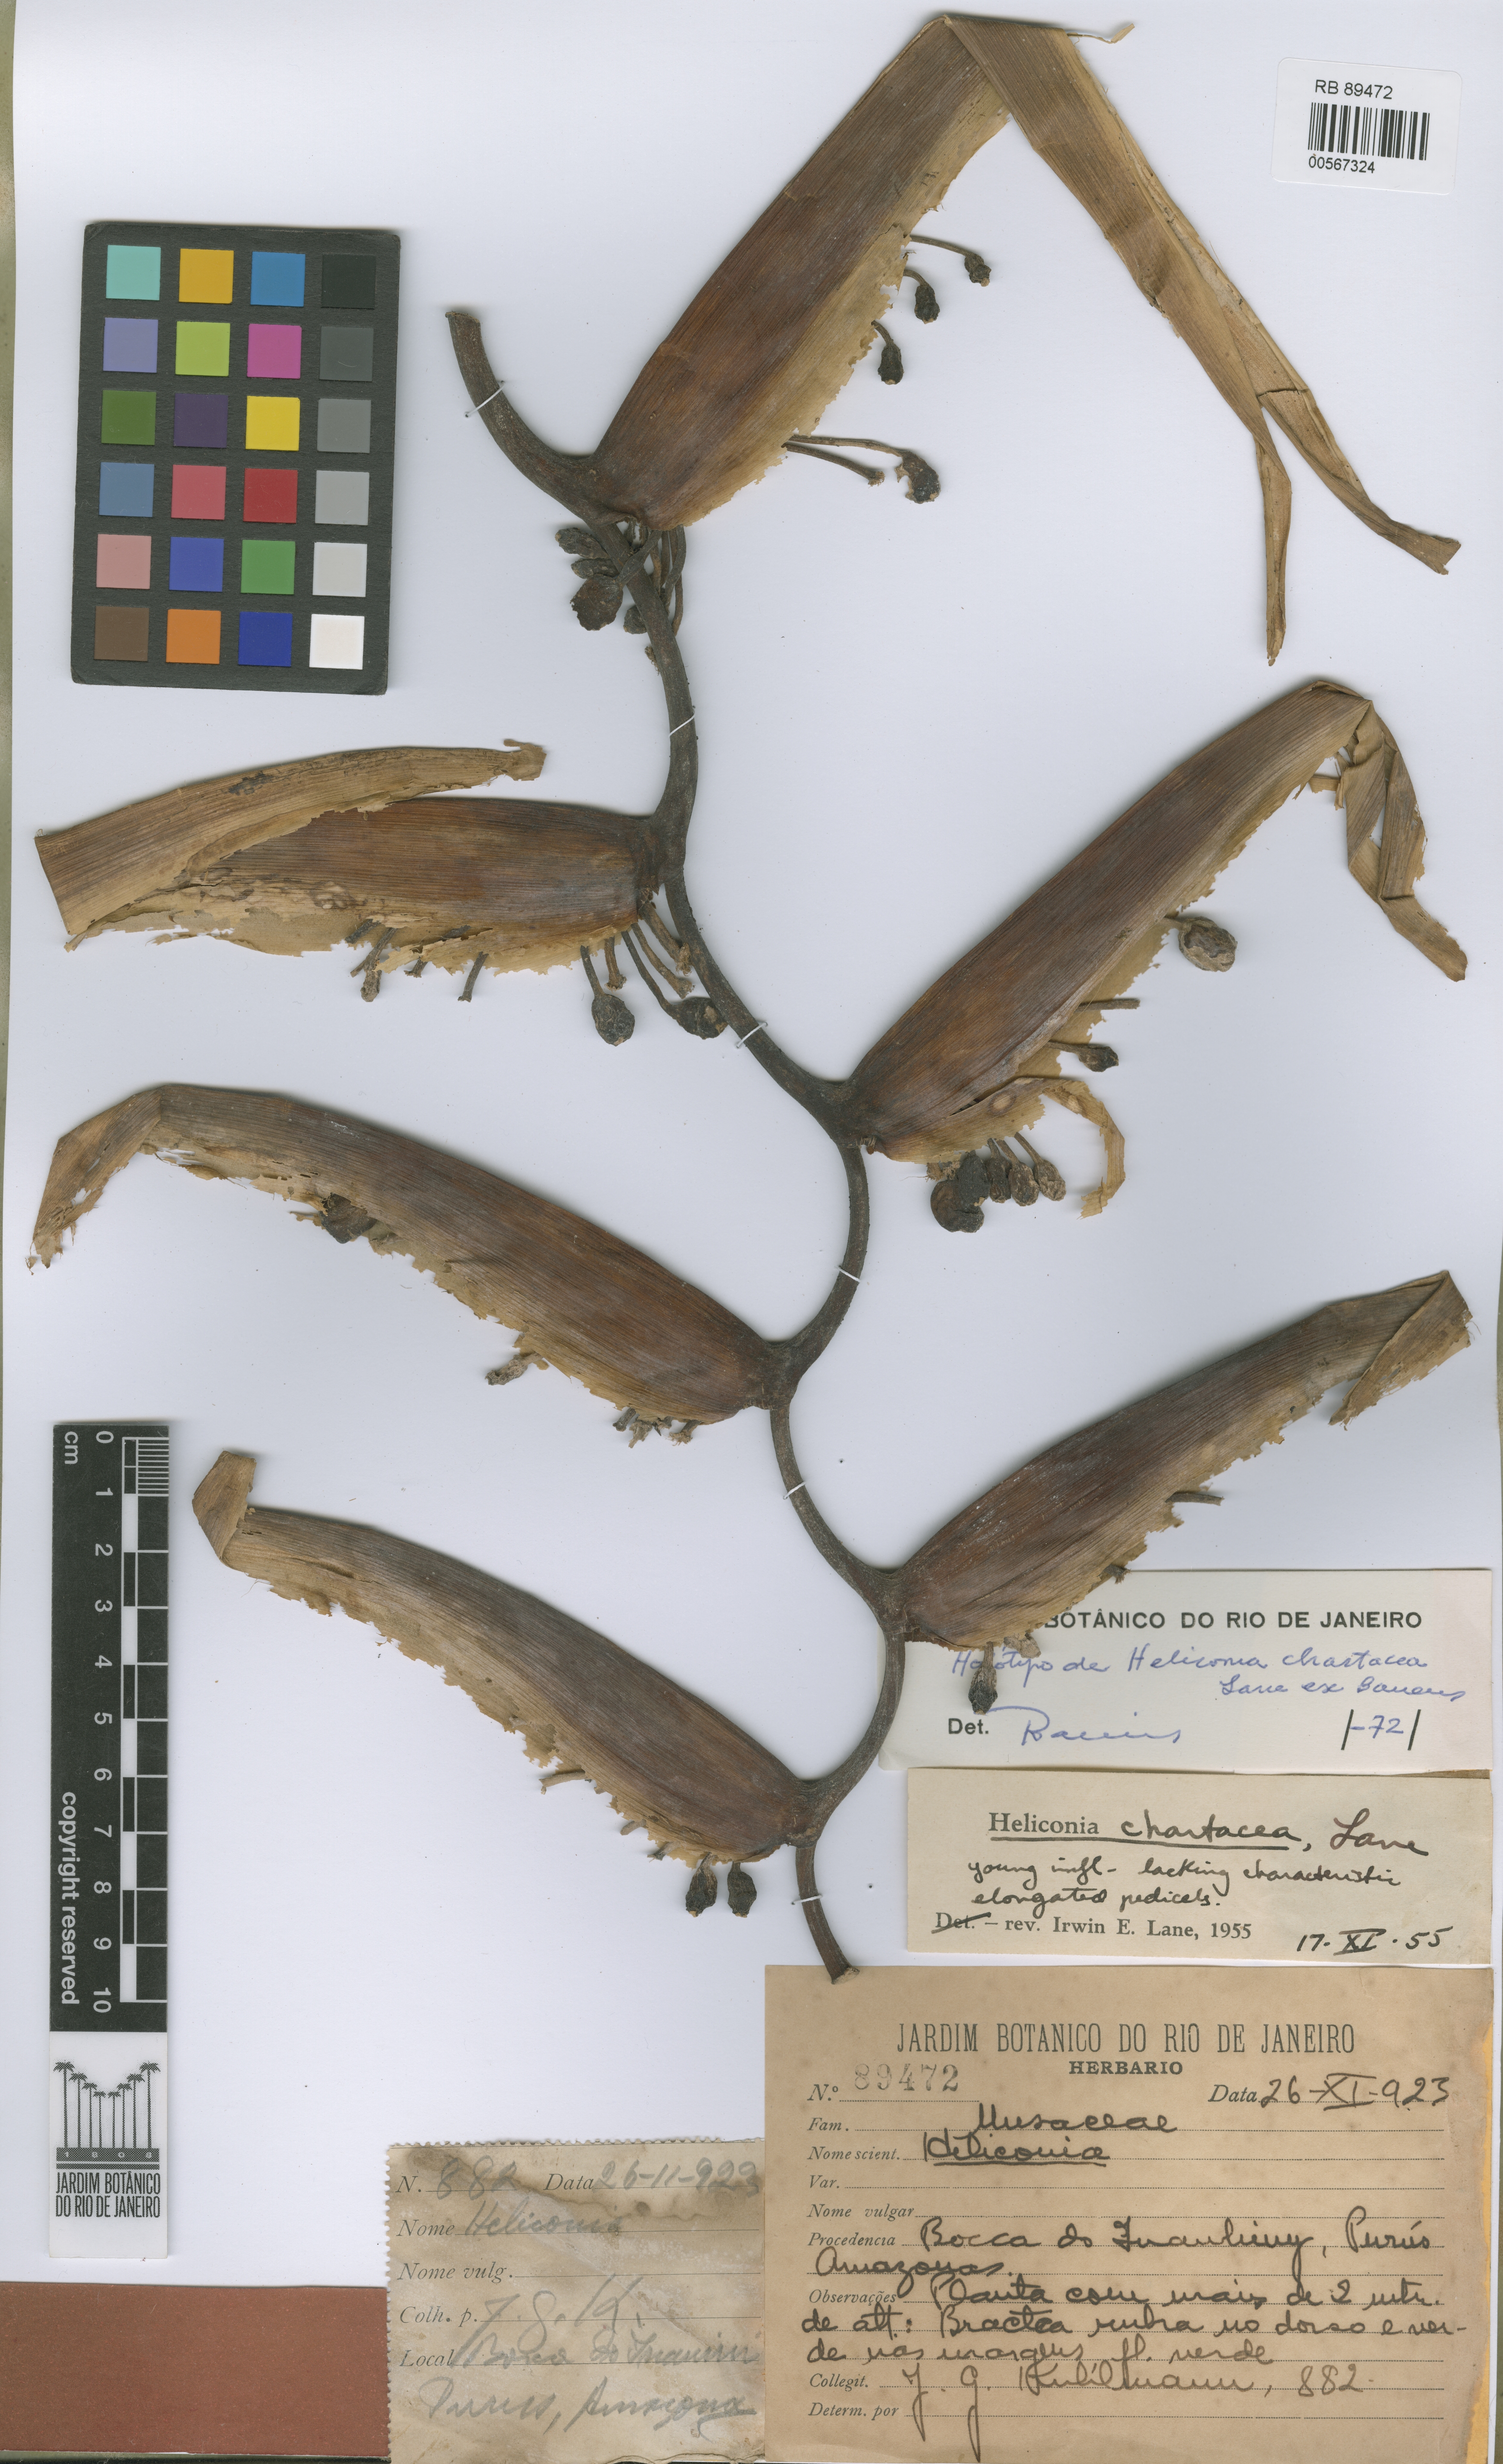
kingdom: Plantae
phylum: Tracheophyta
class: Liliopsida
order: Zingiberales
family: Heliconiaceae
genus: Heliconia
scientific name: Heliconia chartacea
